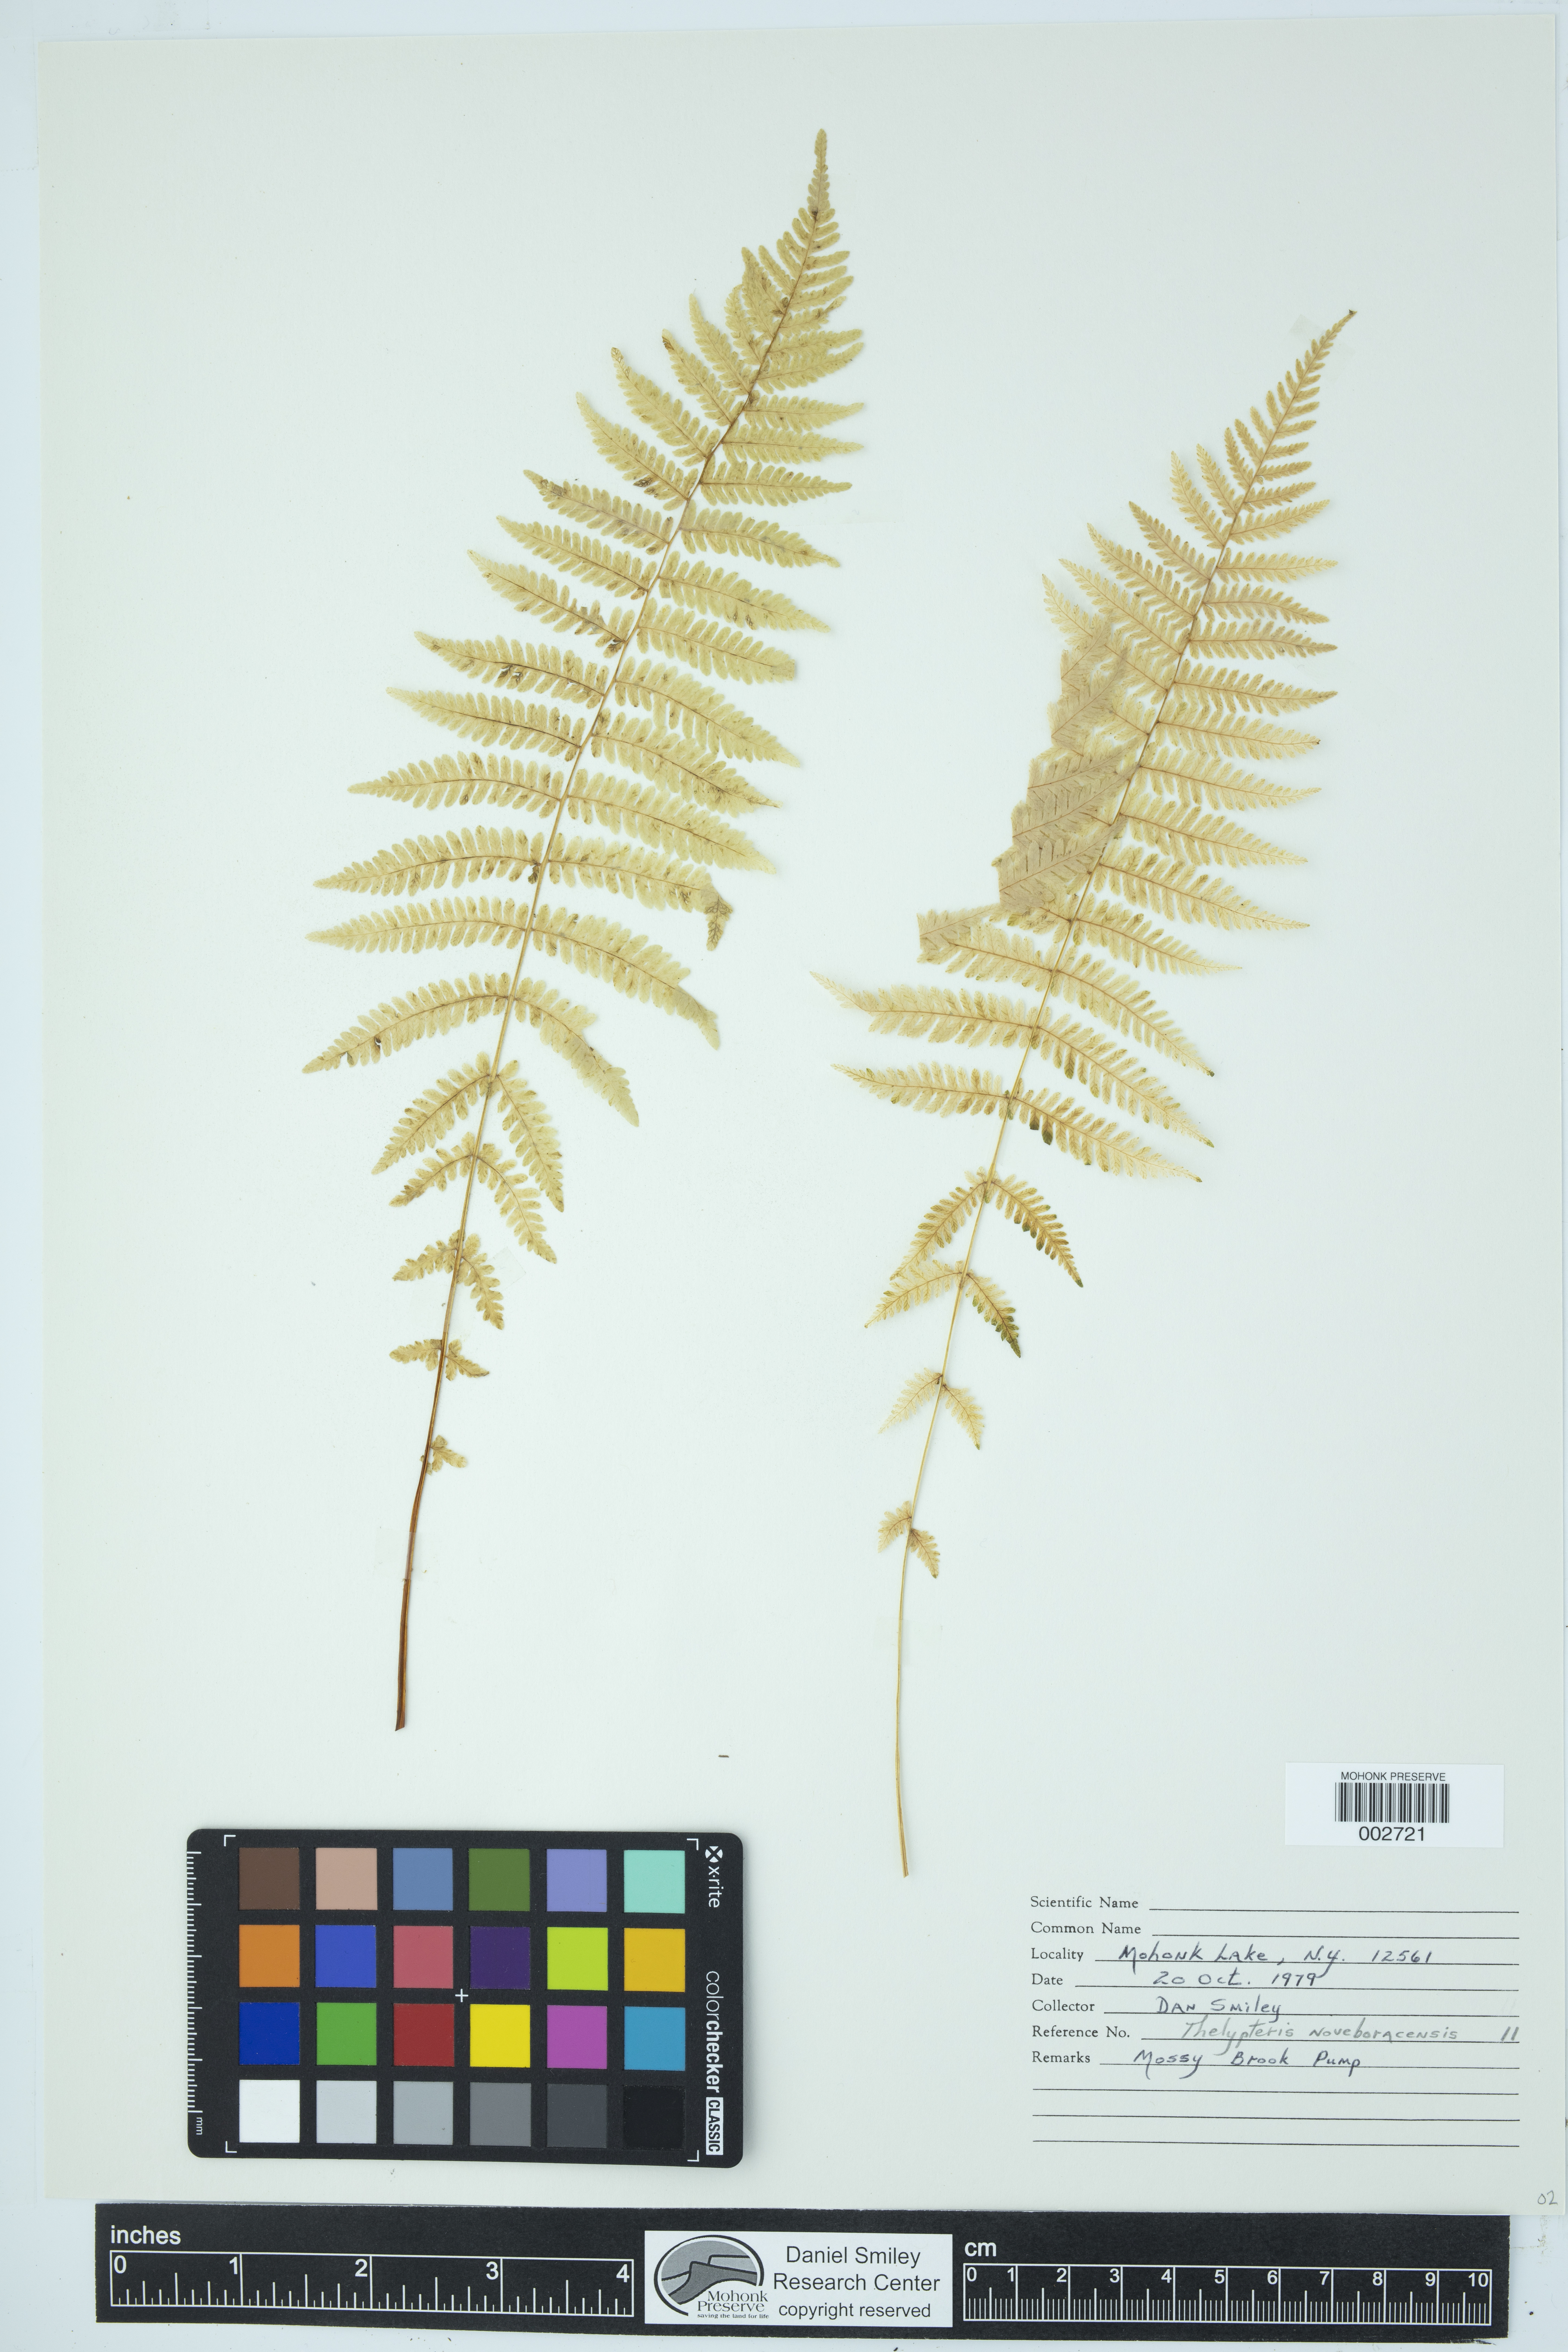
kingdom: Plantae
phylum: Tracheophyta
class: Polypodiopsida
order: Polypodiales
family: Thelypteridaceae
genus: Amauropelta
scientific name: Amauropelta noveboracensis
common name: New york fern
